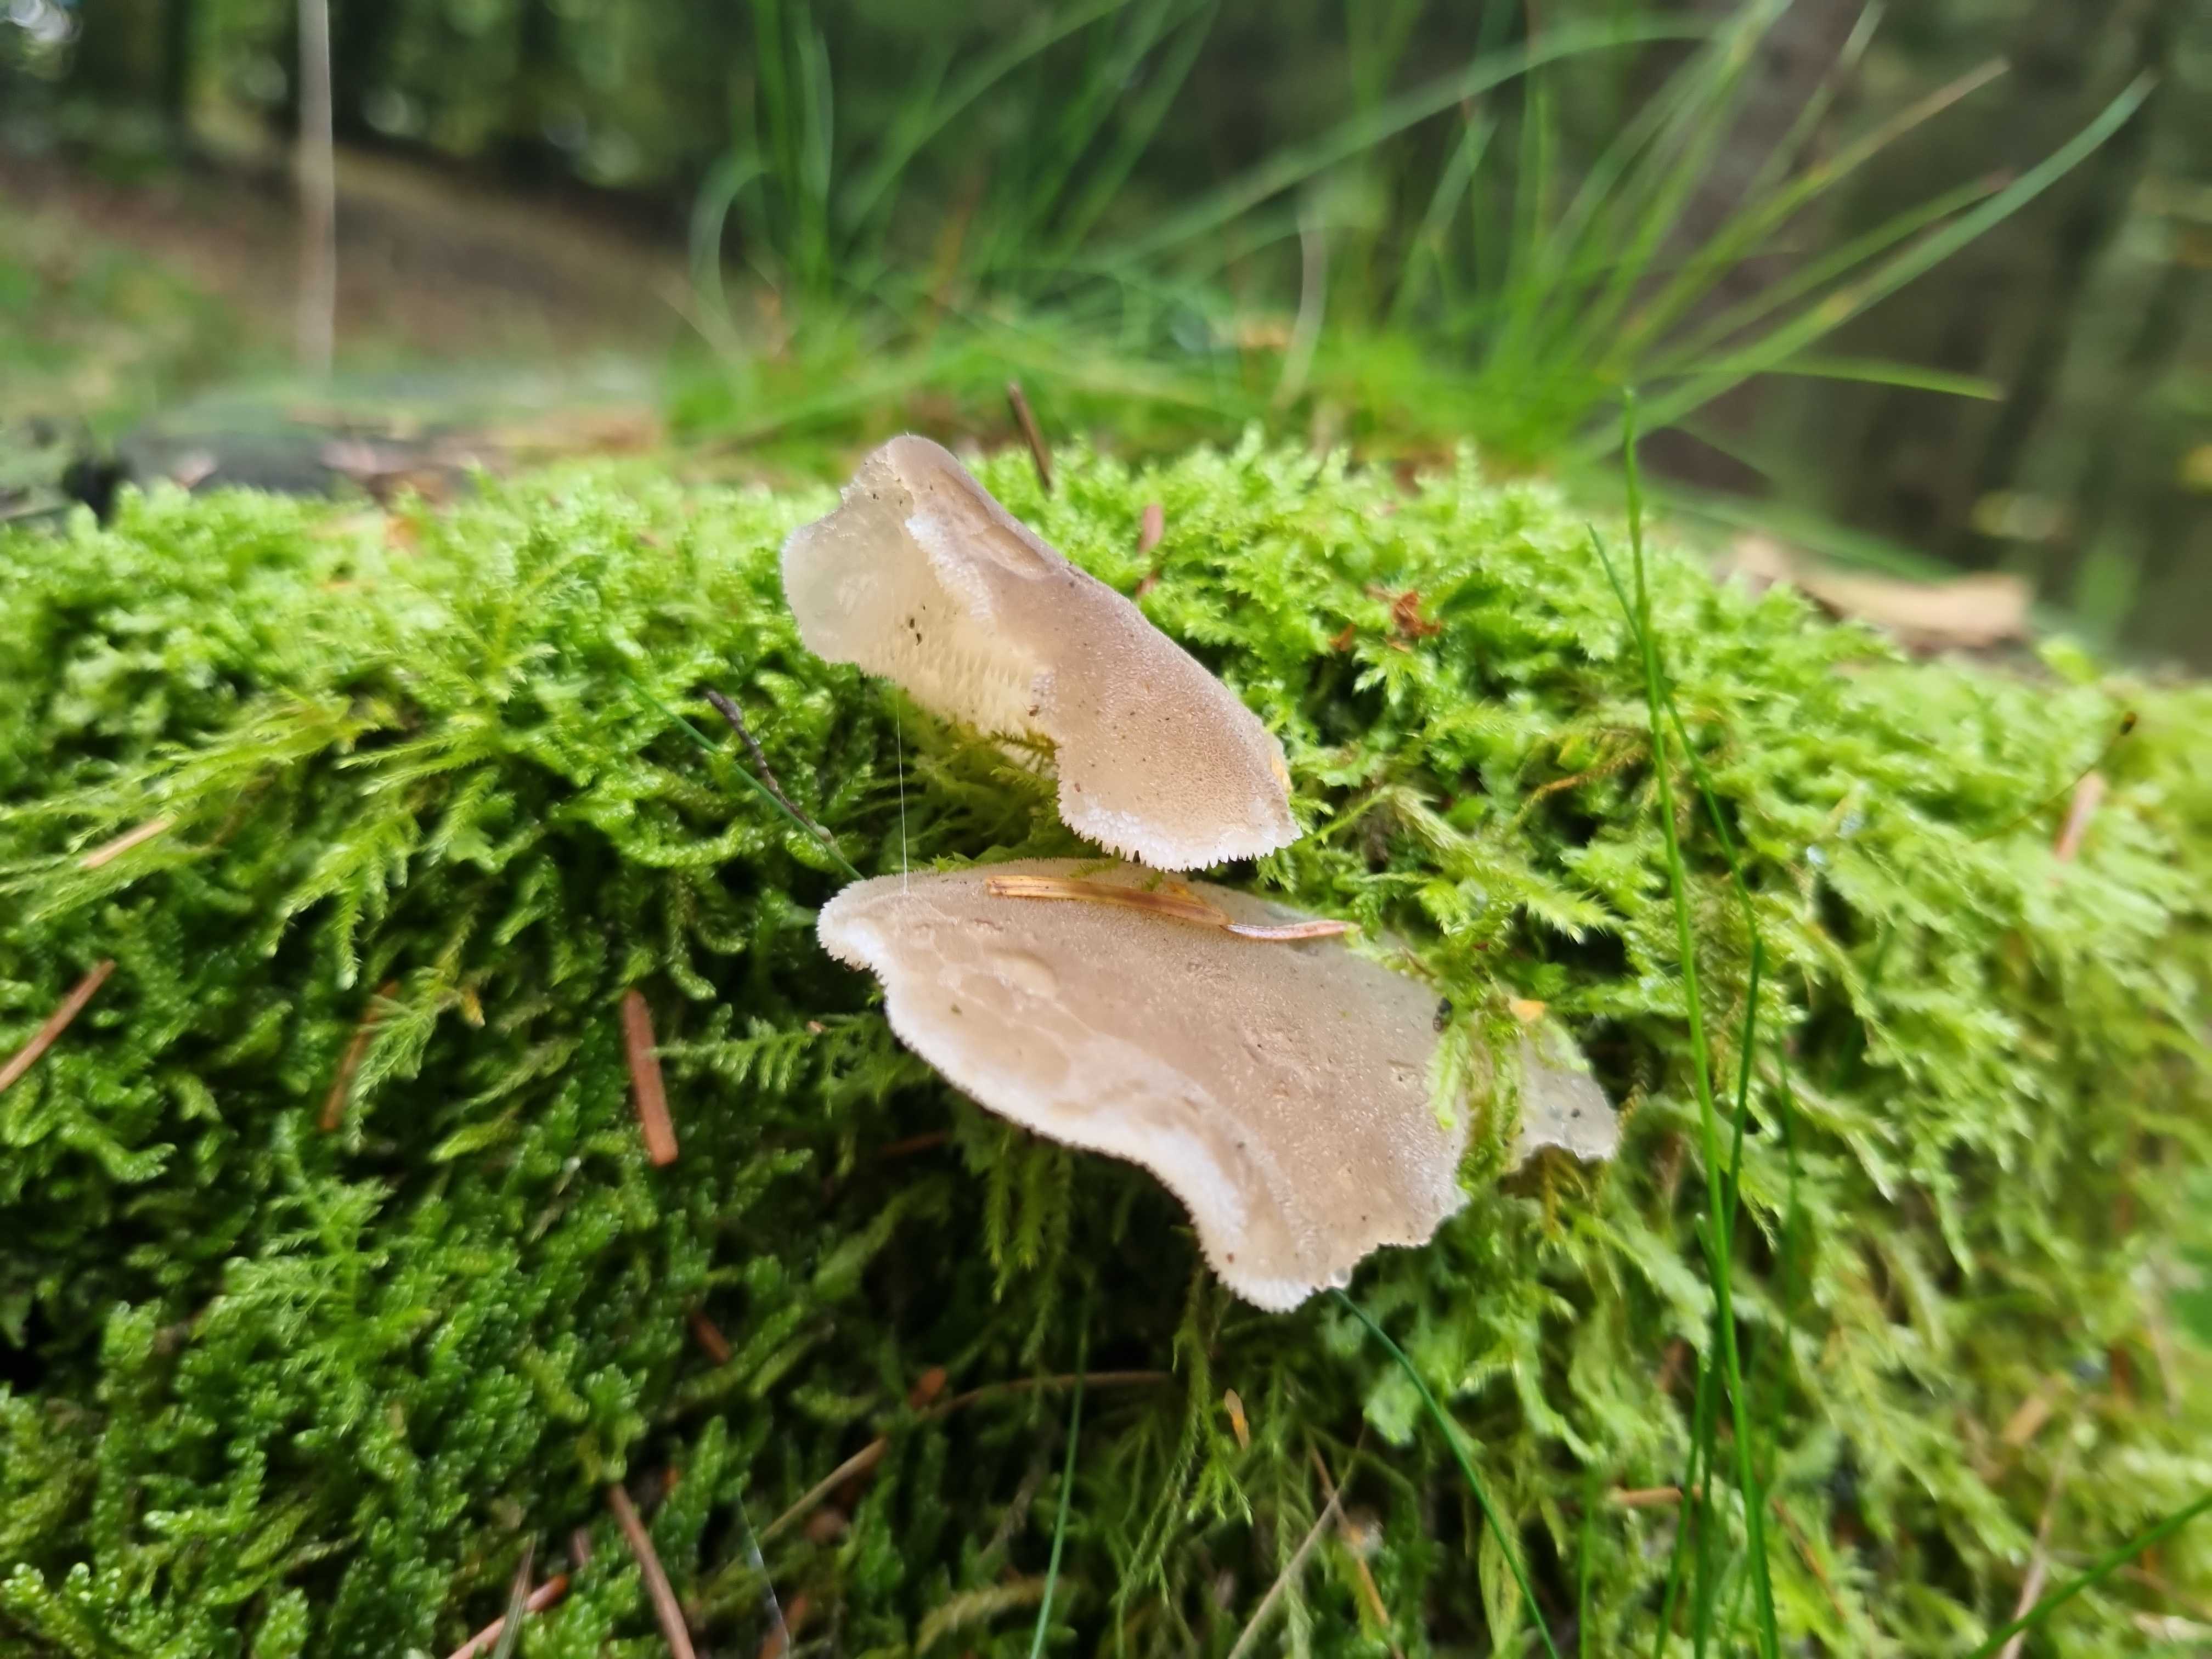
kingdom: Fungi
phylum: Basidiomycota
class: Agaricomycetes
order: Auriculariales
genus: Pseudohydnum
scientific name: Pseudohydnum gelatinosum
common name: bævretand
